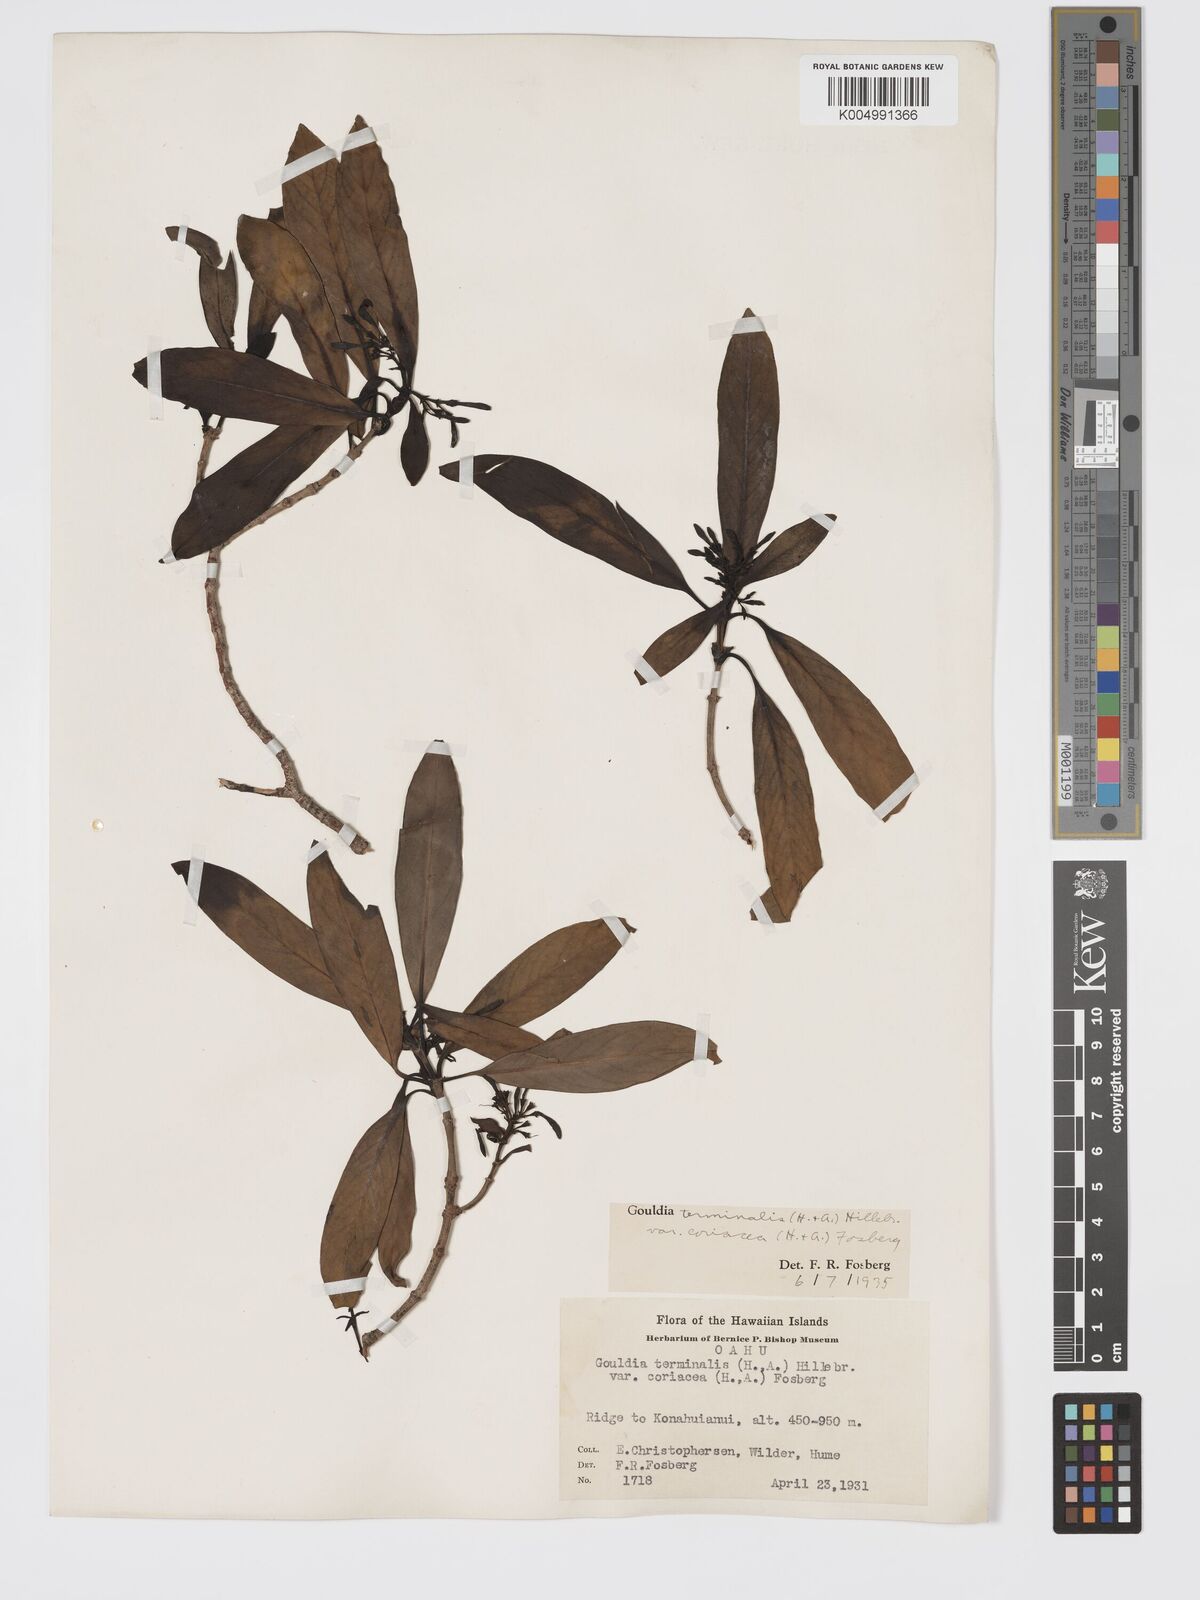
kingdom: Plantae
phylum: Tracheophyta
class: Magnoliopsida
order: Gentianales
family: Rubiaceae
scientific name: Rubiaceae
